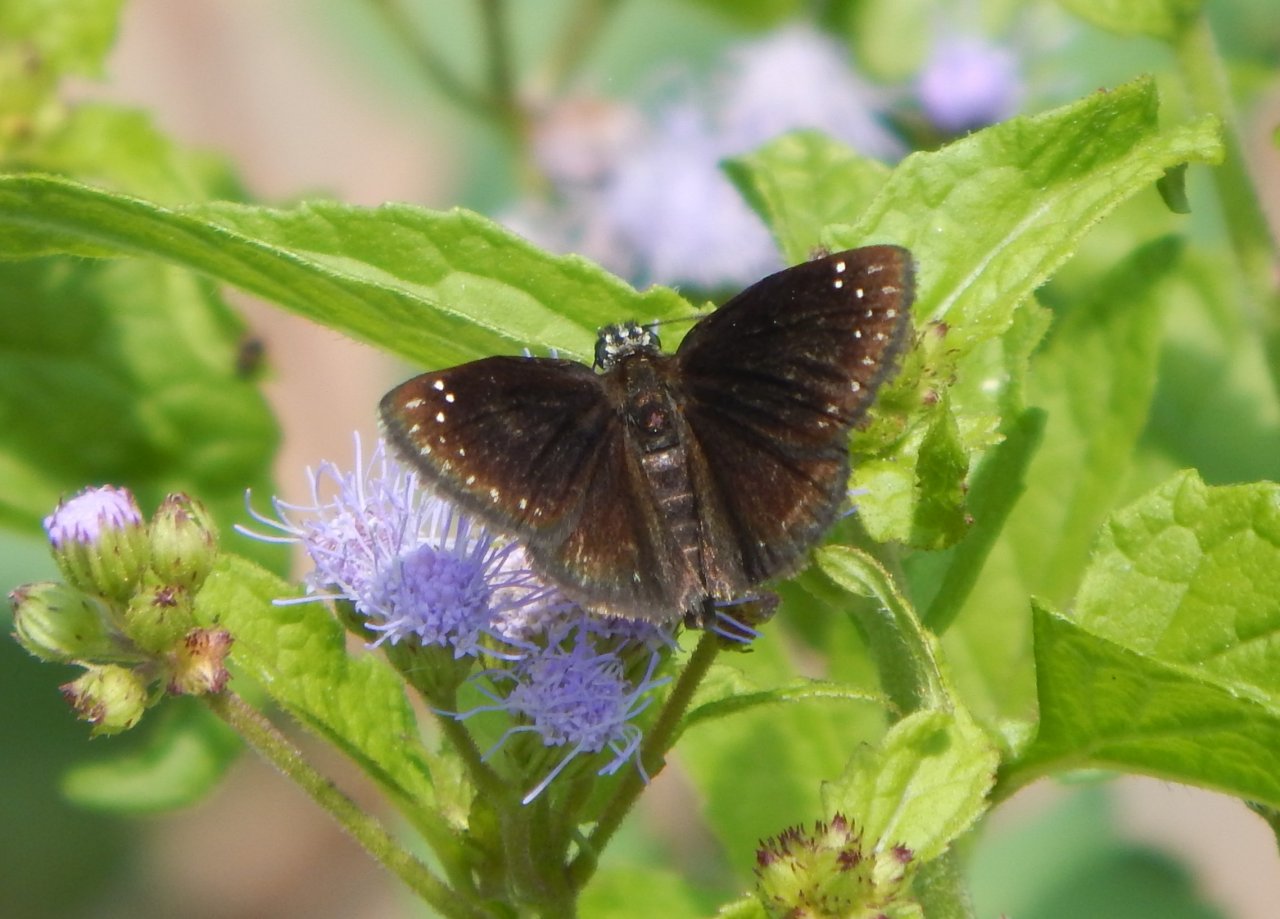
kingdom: Animalia
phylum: Arthropoda
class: Insecta
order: Lepidoptera
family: Hesperiidae
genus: Pholisora
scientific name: Pholisora catullus
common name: Common Sootywing
